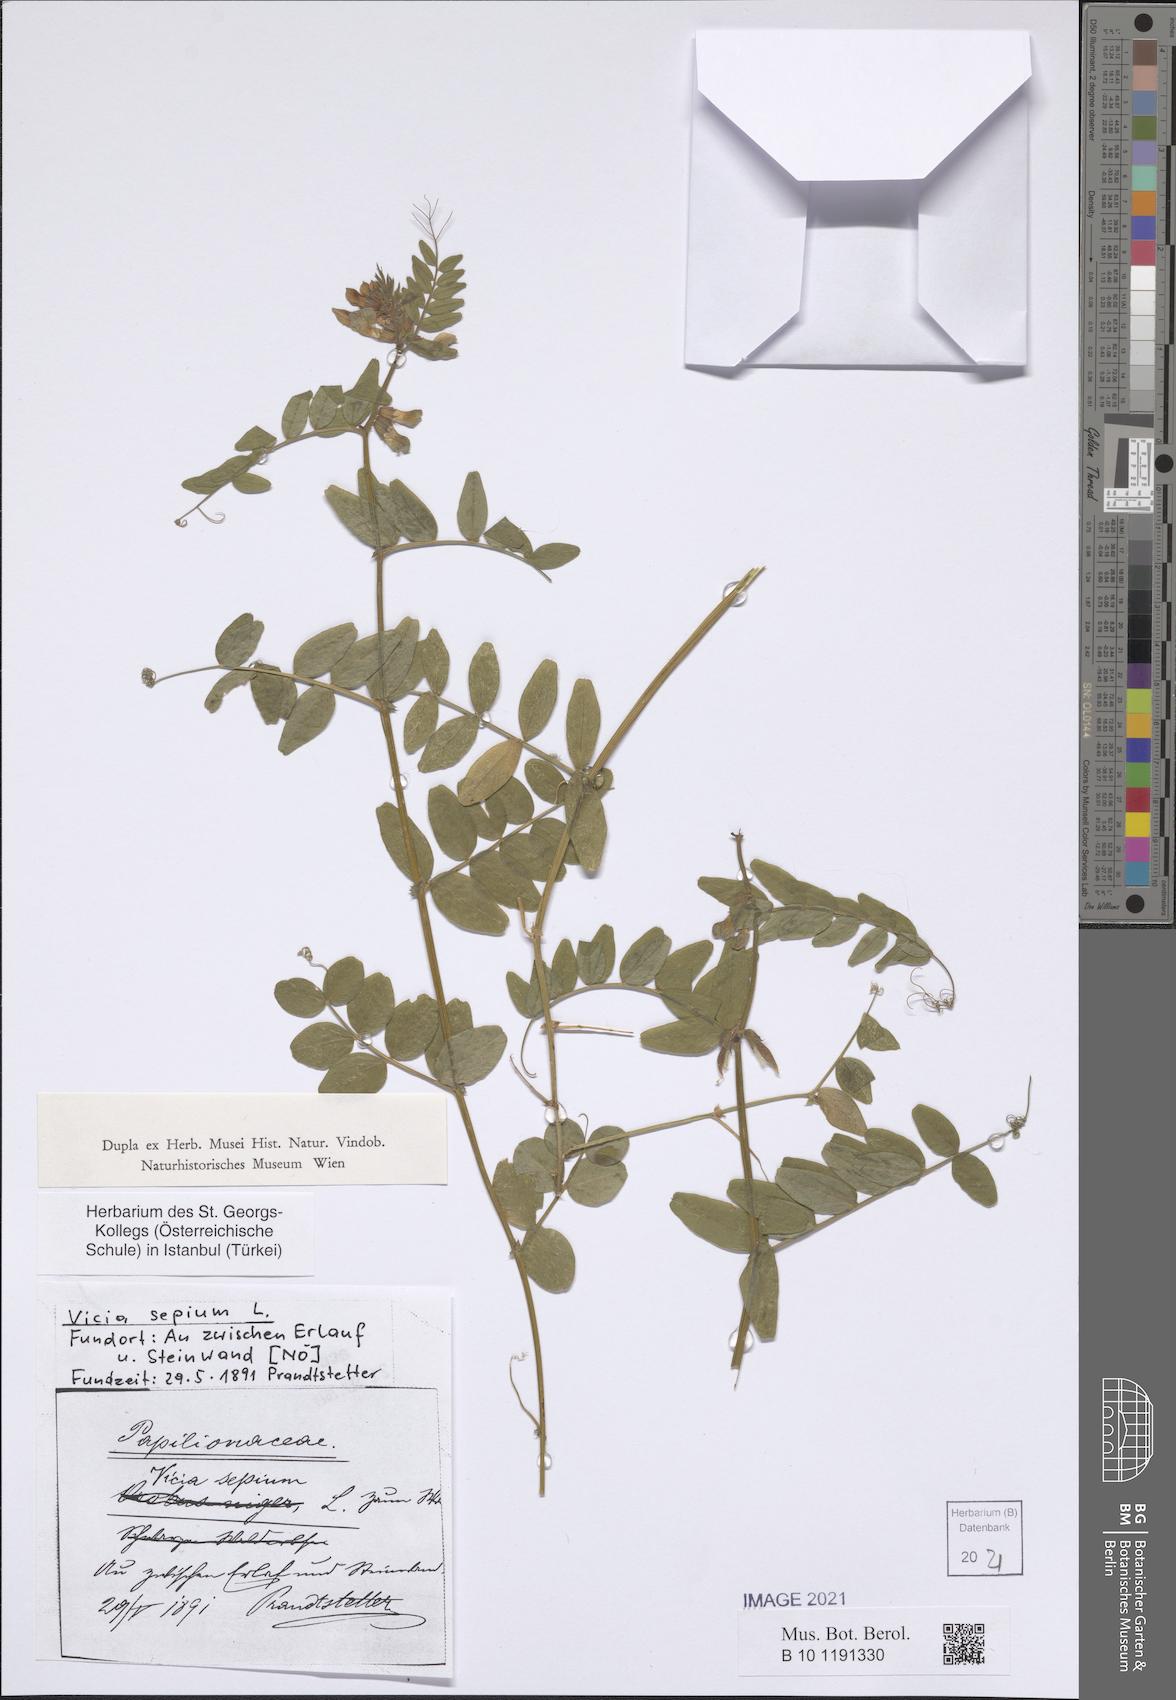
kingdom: Plantae
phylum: Tracheophyta
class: Magnoliopsida
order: Fabales
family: Fabaceae
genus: Vicia
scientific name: Vicia sepium
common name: Bush vetch
